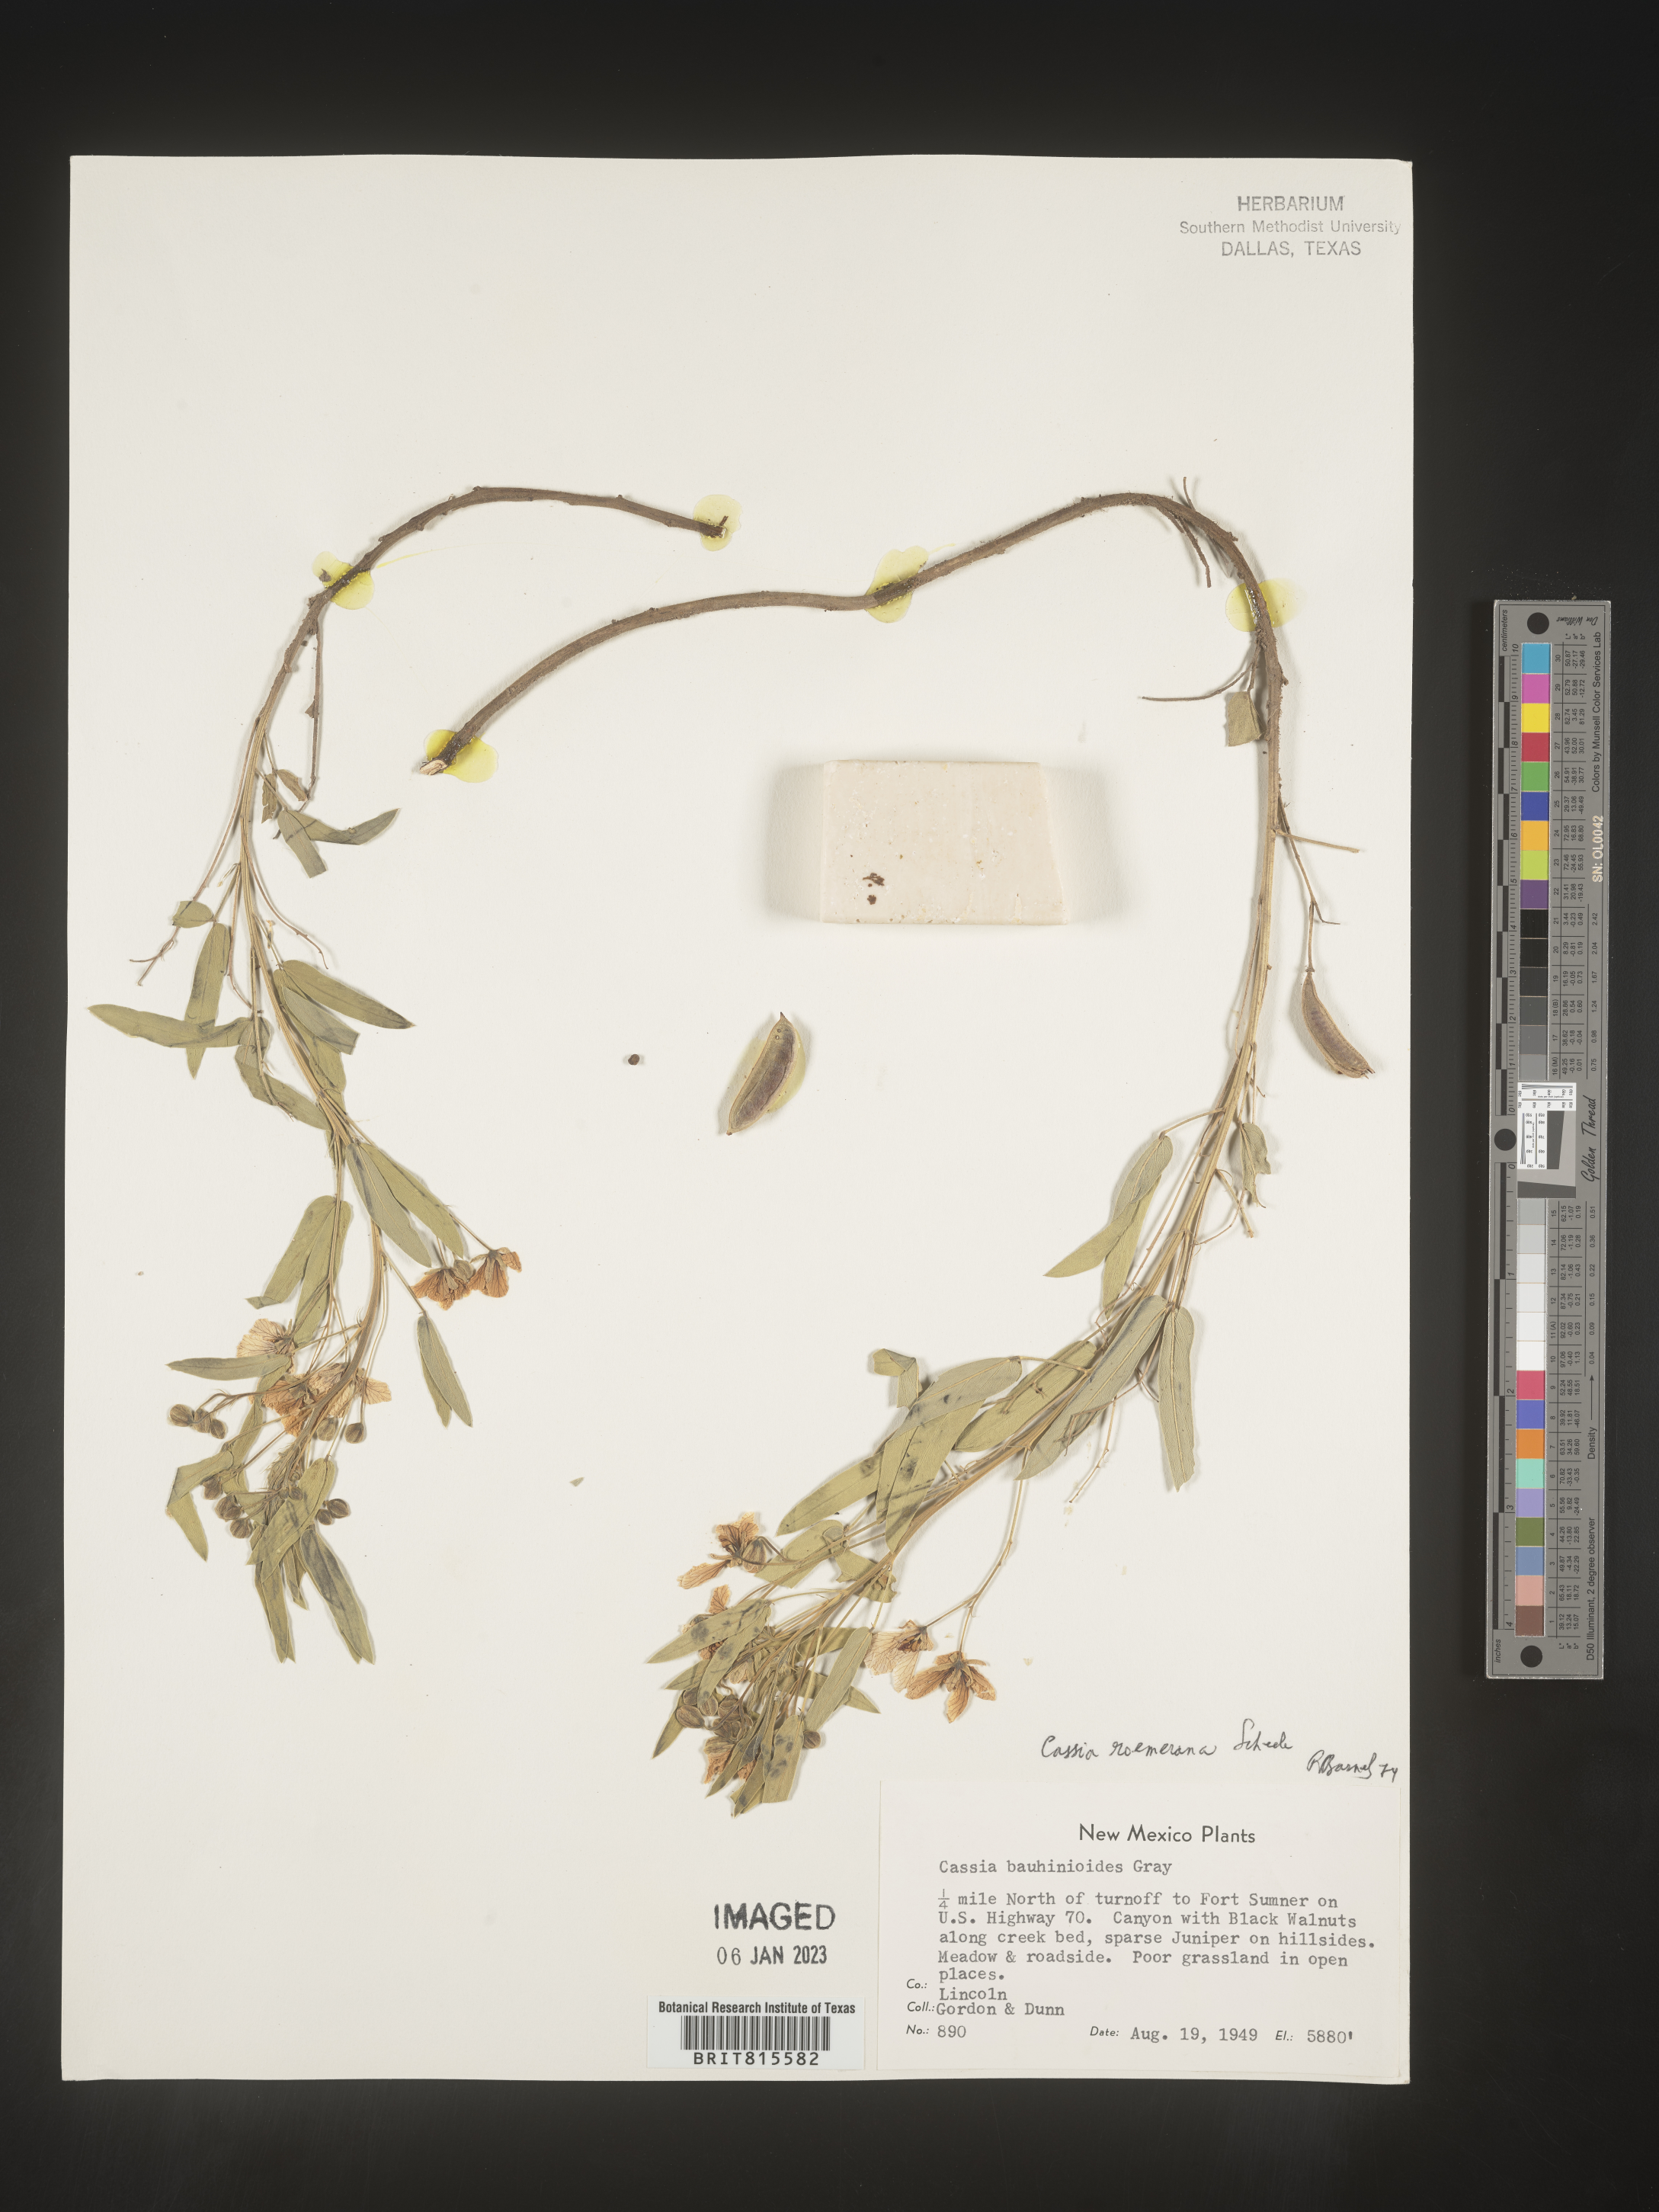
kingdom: Plantae
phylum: Tracheophyta
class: Magnoliopsida
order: Fabales
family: Fabaceae
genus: Cassia
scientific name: Cassia
